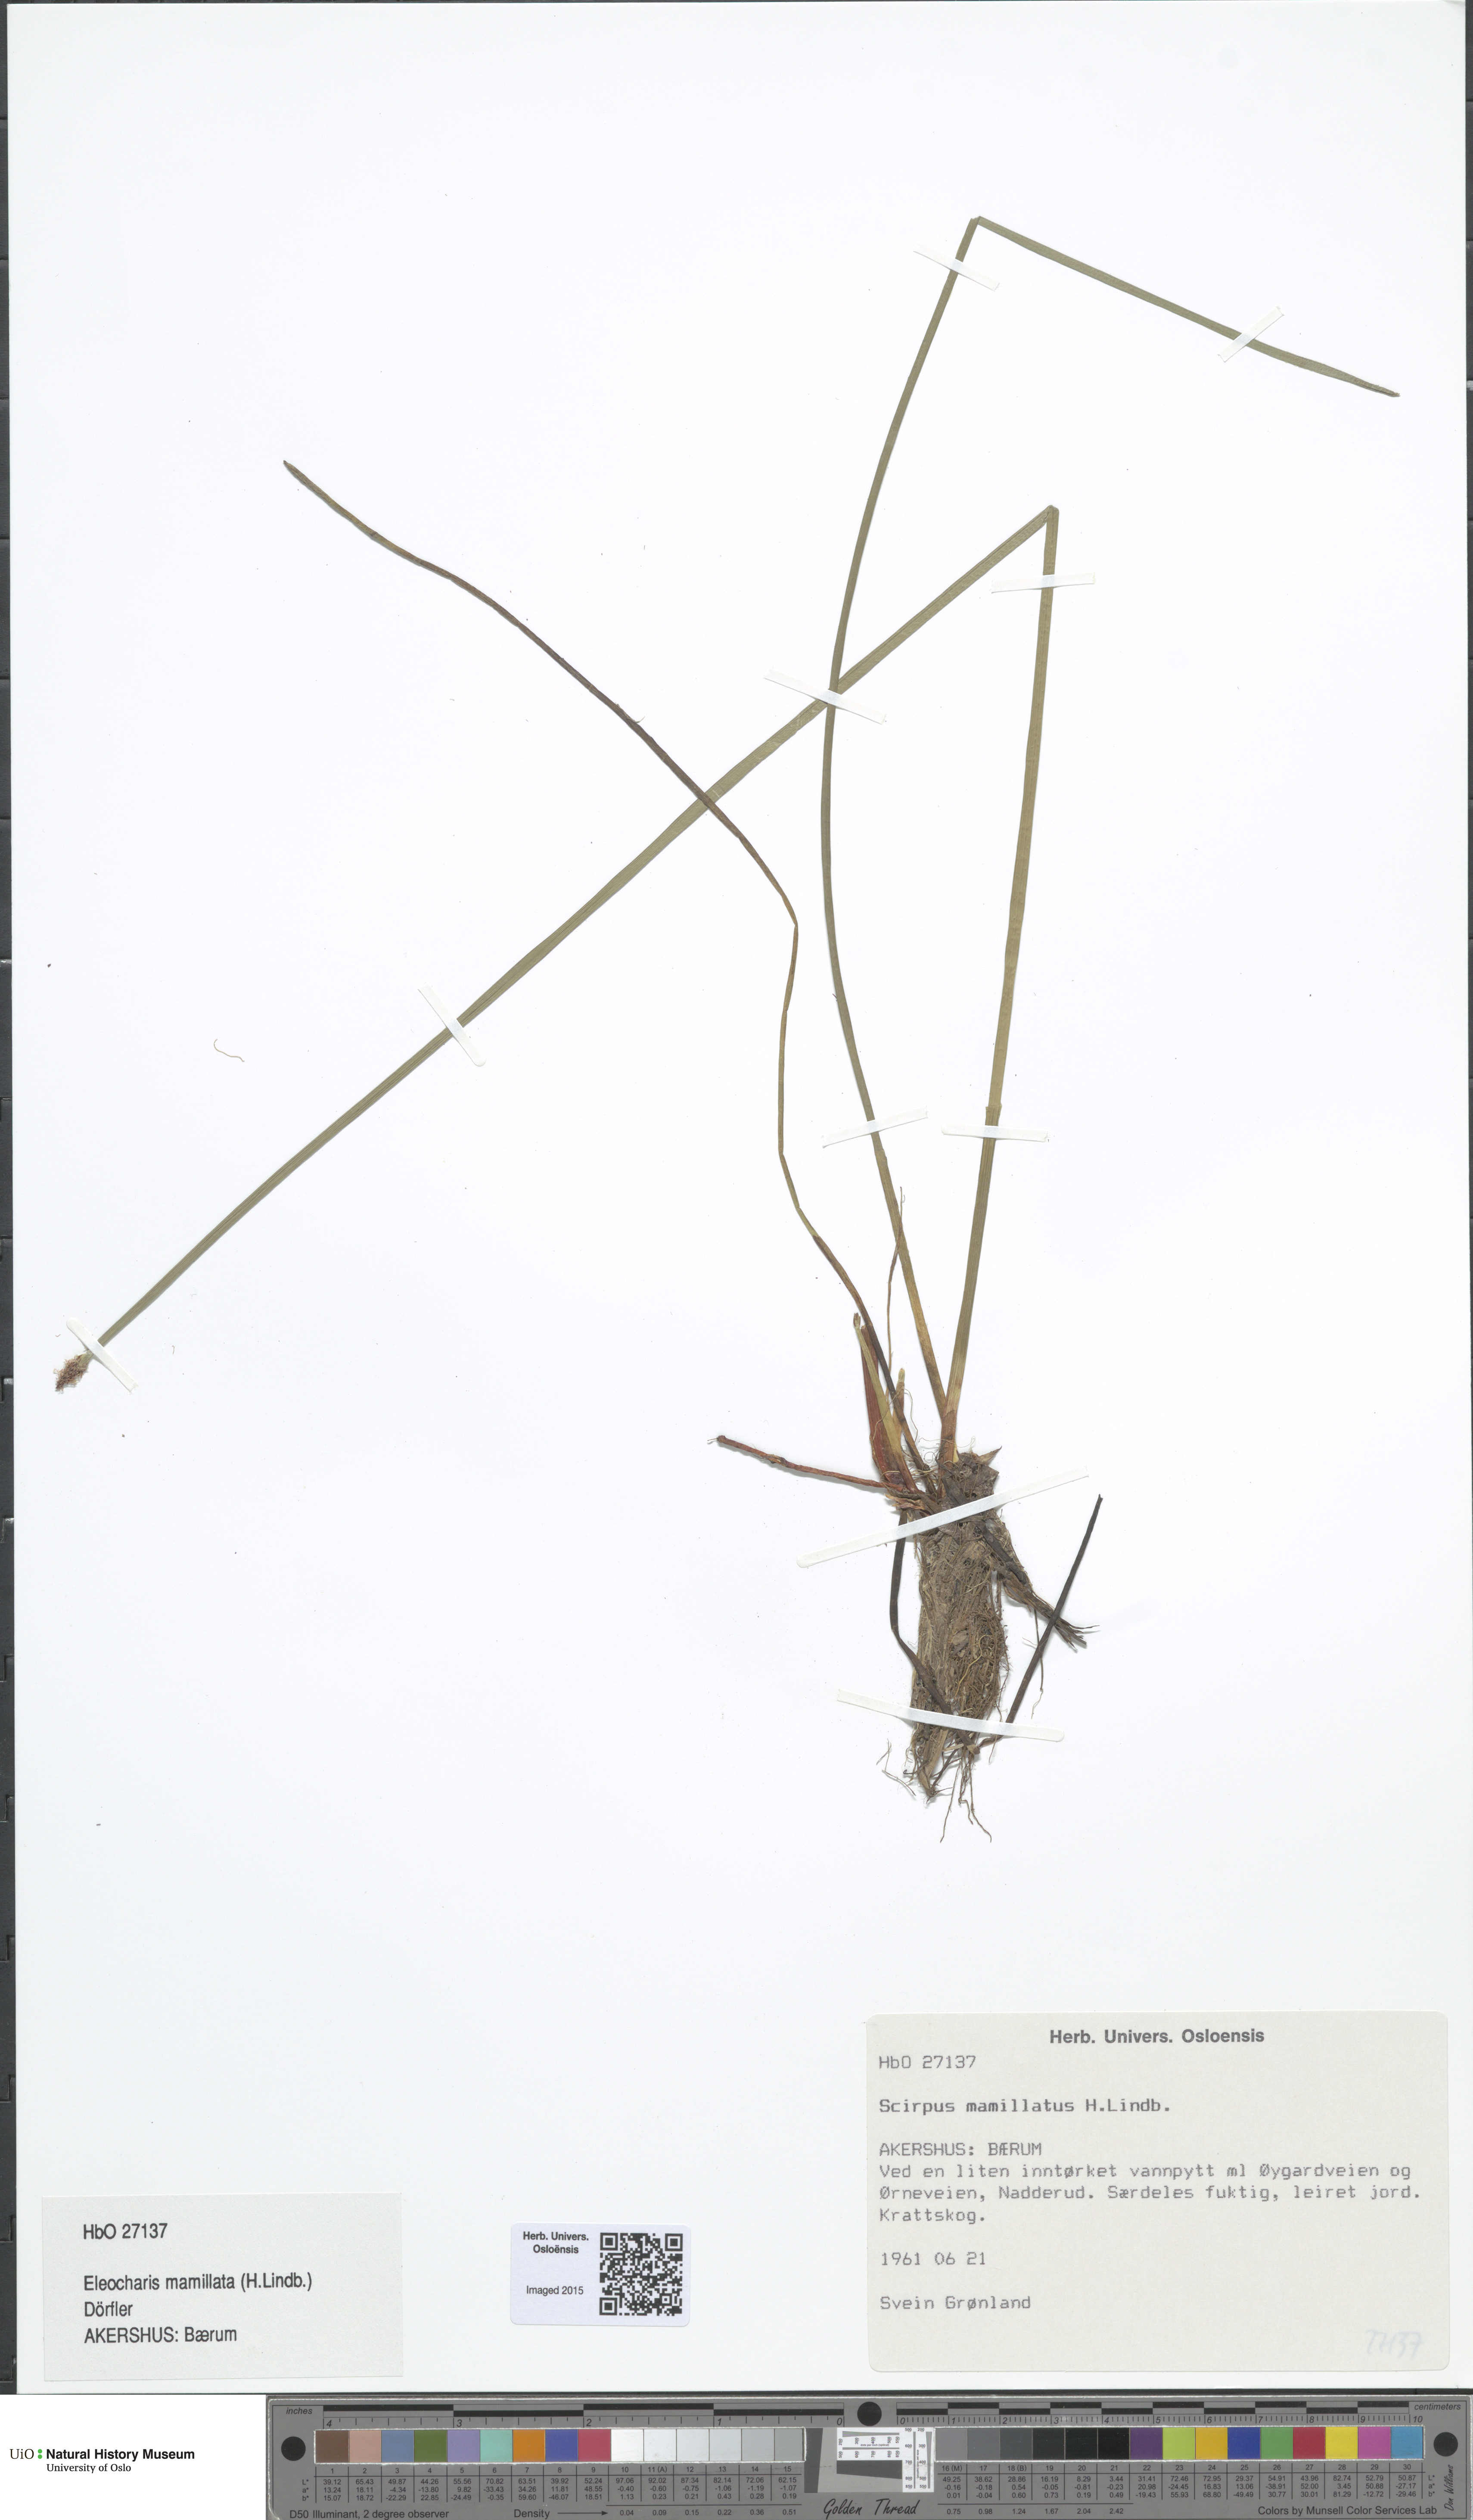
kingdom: Plantae
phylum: Tracheophyta
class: Liliopsida
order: Poales
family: Cyperaceae
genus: Eleocharis
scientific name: Eleocharis mamillata
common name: Northern spike-rush
